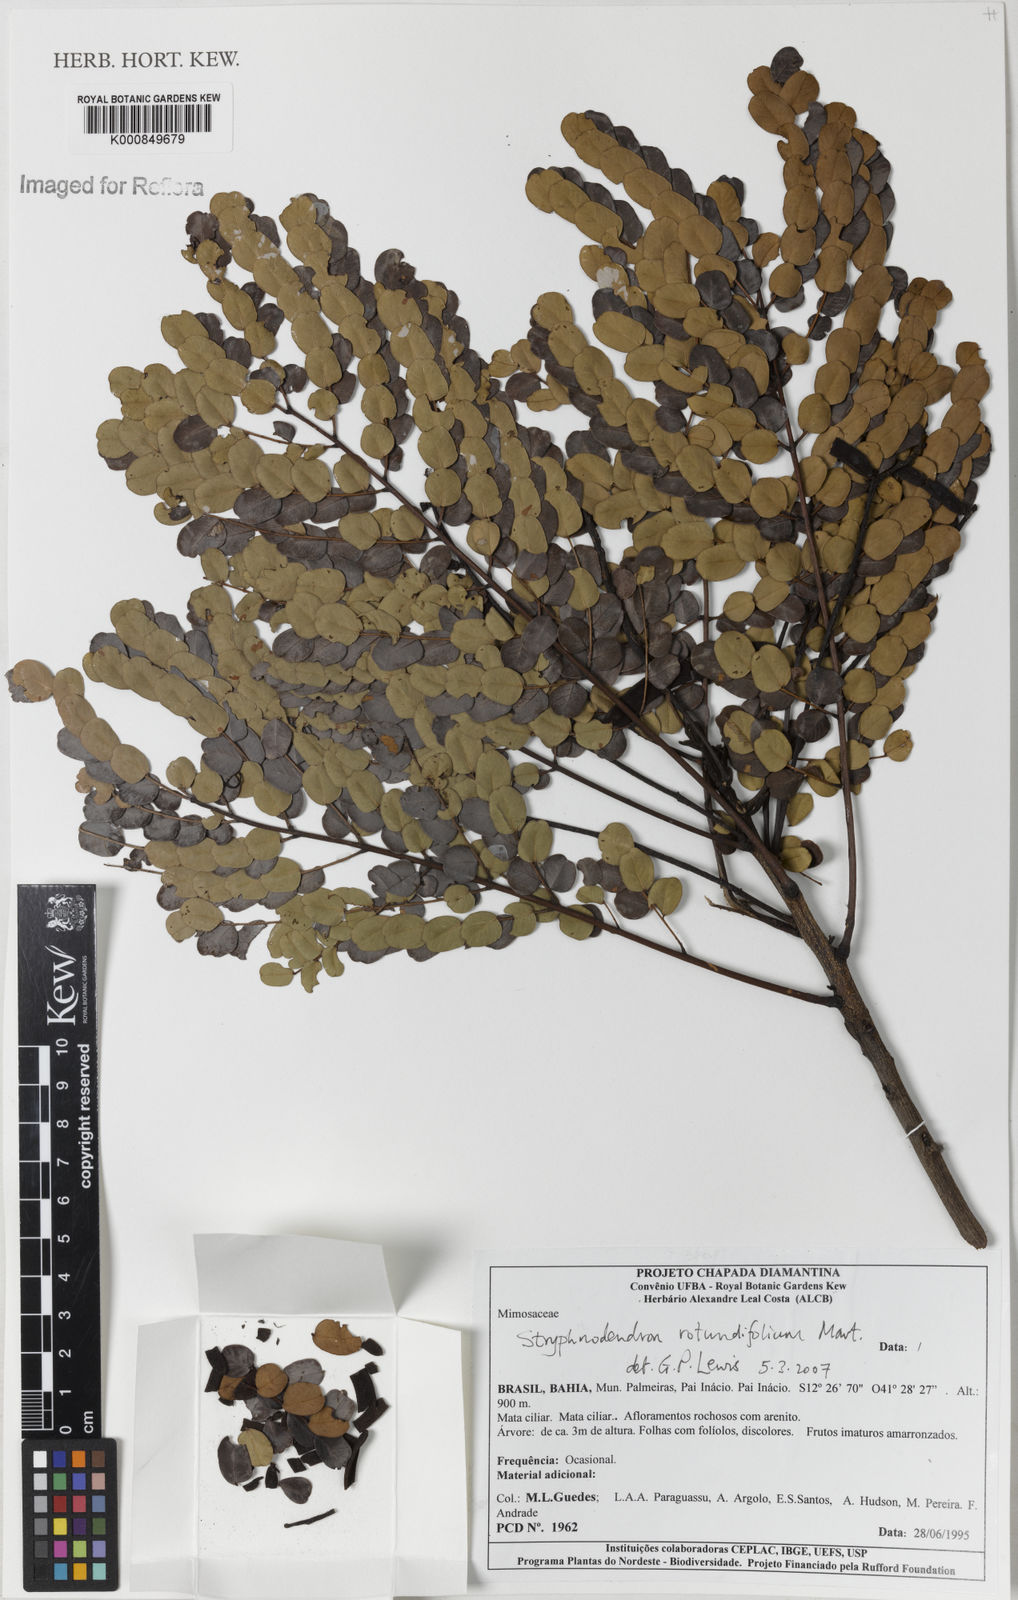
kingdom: Plantae
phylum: Tracheophyta
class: Magnoliopsida
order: Fabales
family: Fabaceae
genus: Stryphnodendron
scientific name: Stryphnodendron rotundifolium
